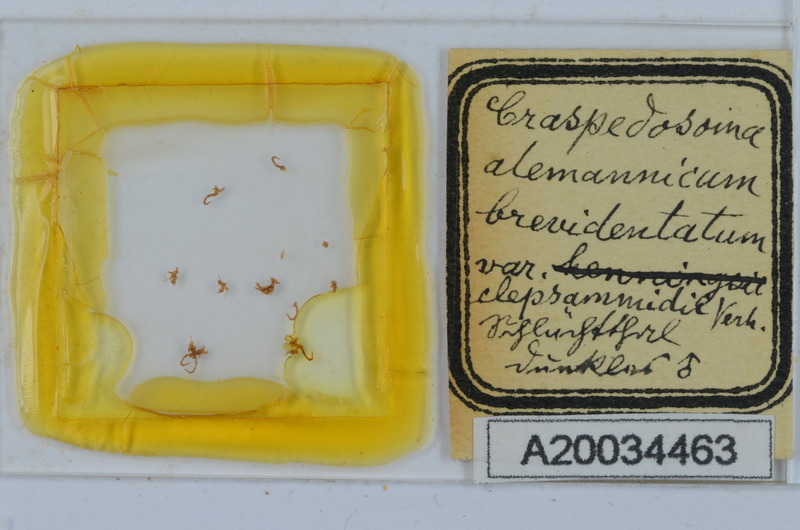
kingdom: Animalia
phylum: Arthropoda
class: Diplopoda
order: Chordeumatida
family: Craspedosomatidae
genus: Craspedosoma
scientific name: Craspedosoma rawlinsii
